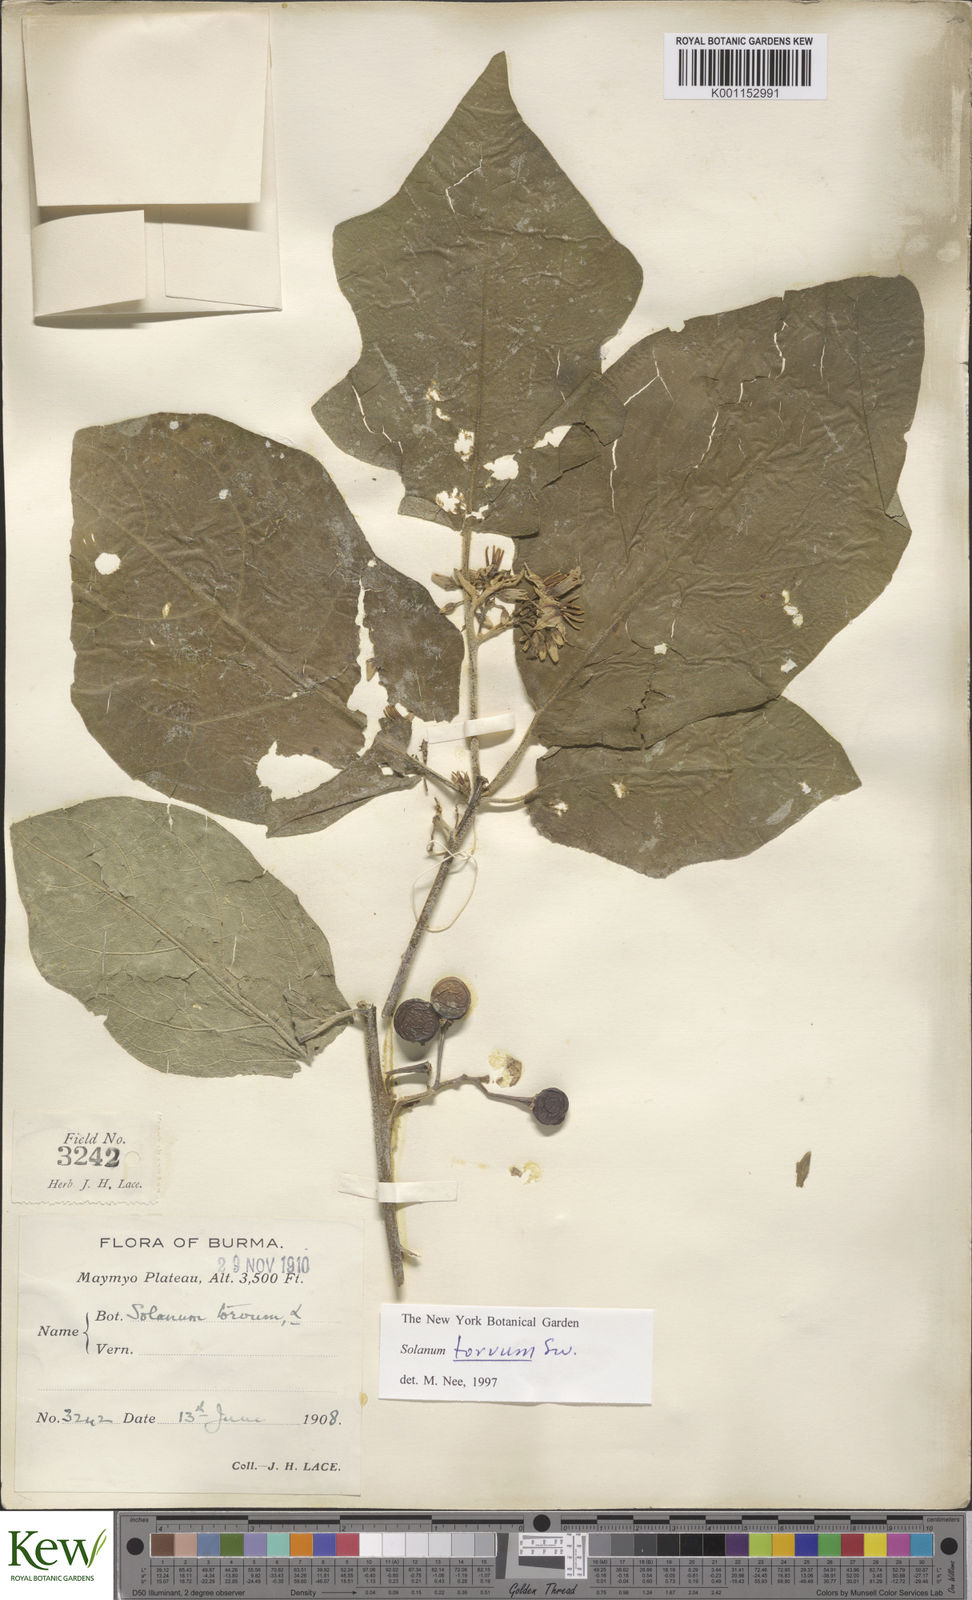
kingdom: Plantae
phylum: Tracheophyta
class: Magnoliopsida
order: Solanales
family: Solanaceae
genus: Solanum
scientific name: Solanum torvum
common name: Turkey berry
